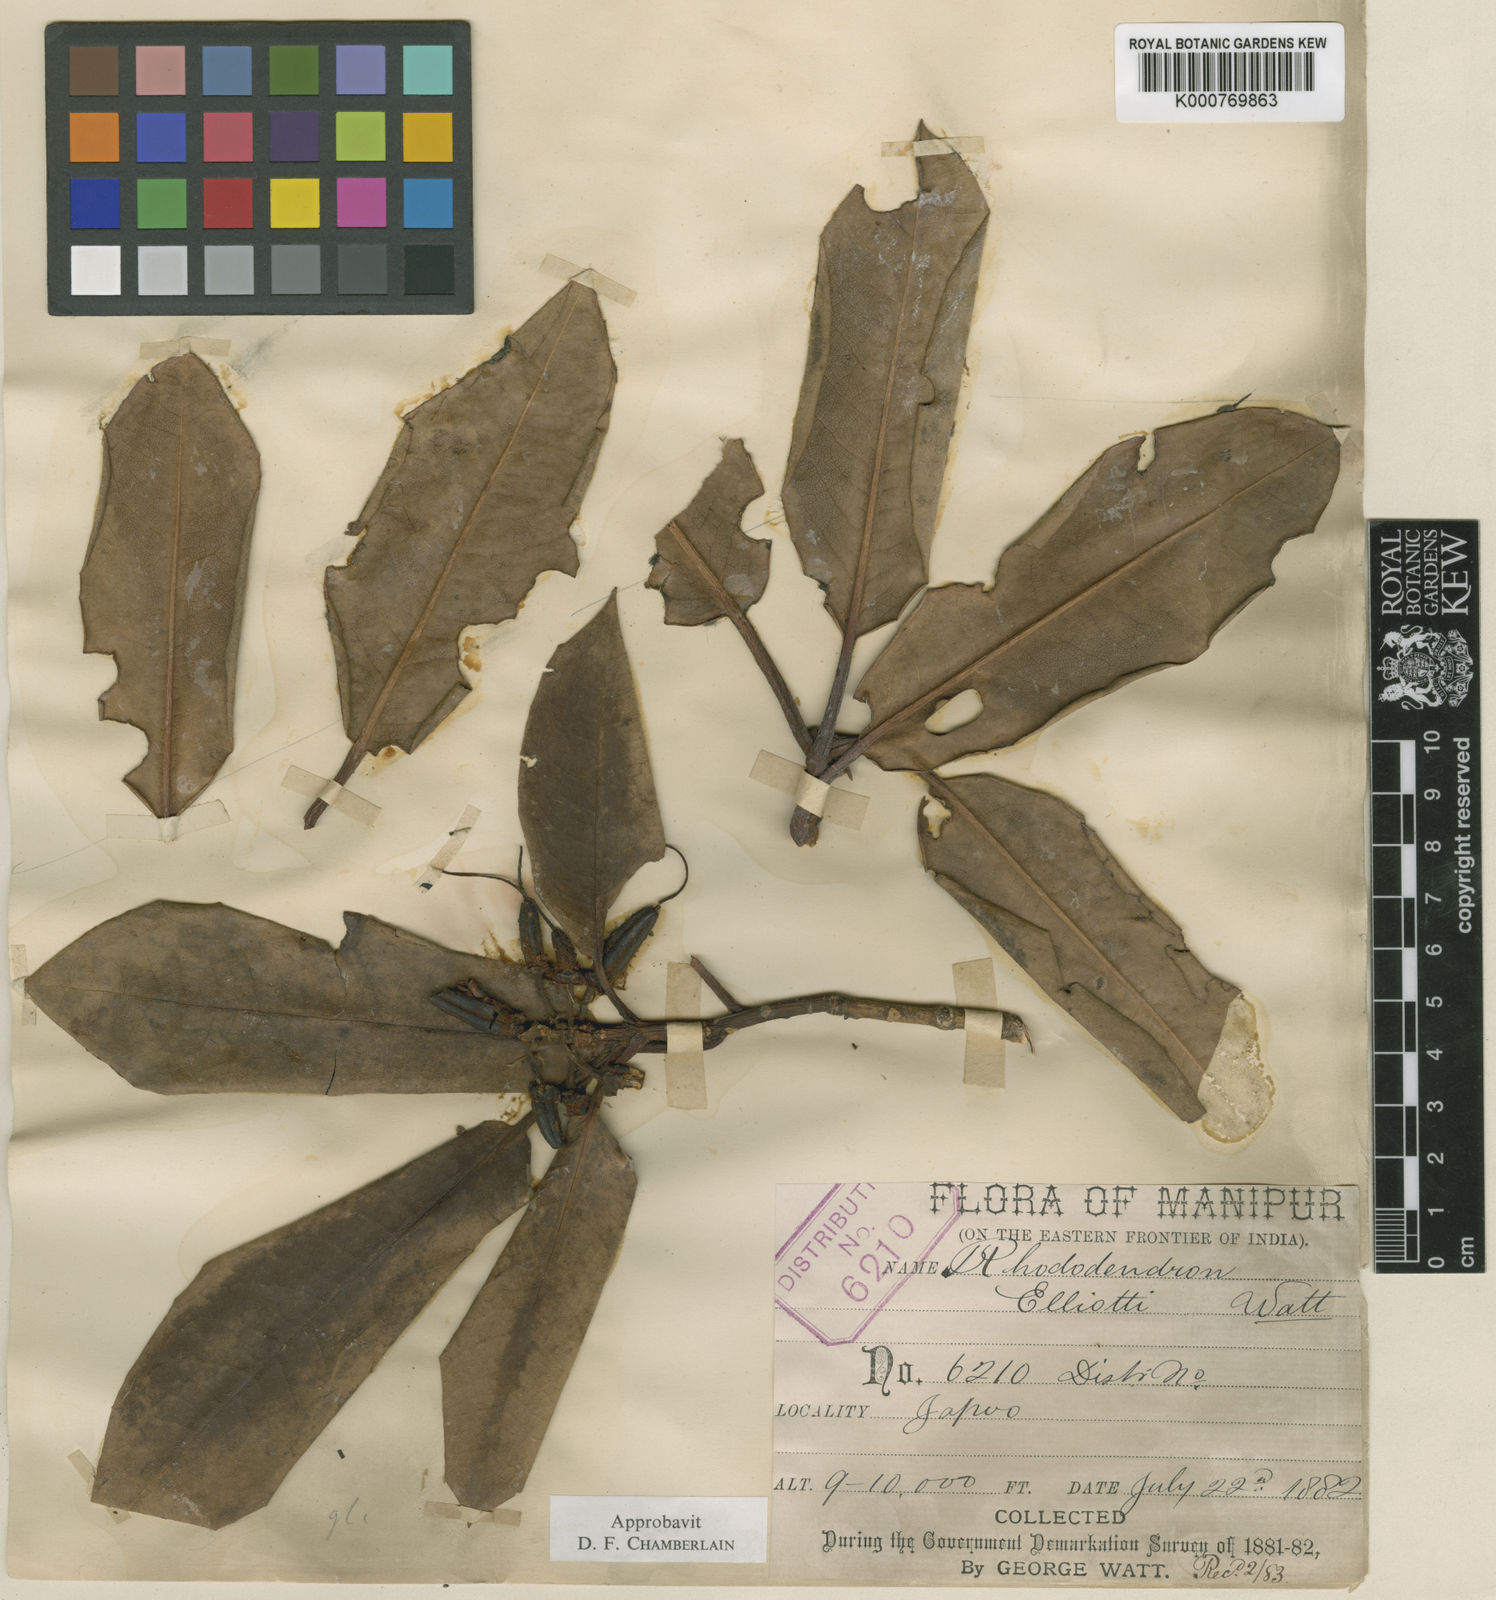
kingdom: Plantae
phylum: Tracheophyta
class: Magnoliopsida
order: Ericales
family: Ericaceae
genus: Rhododendron
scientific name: Rhododendron
